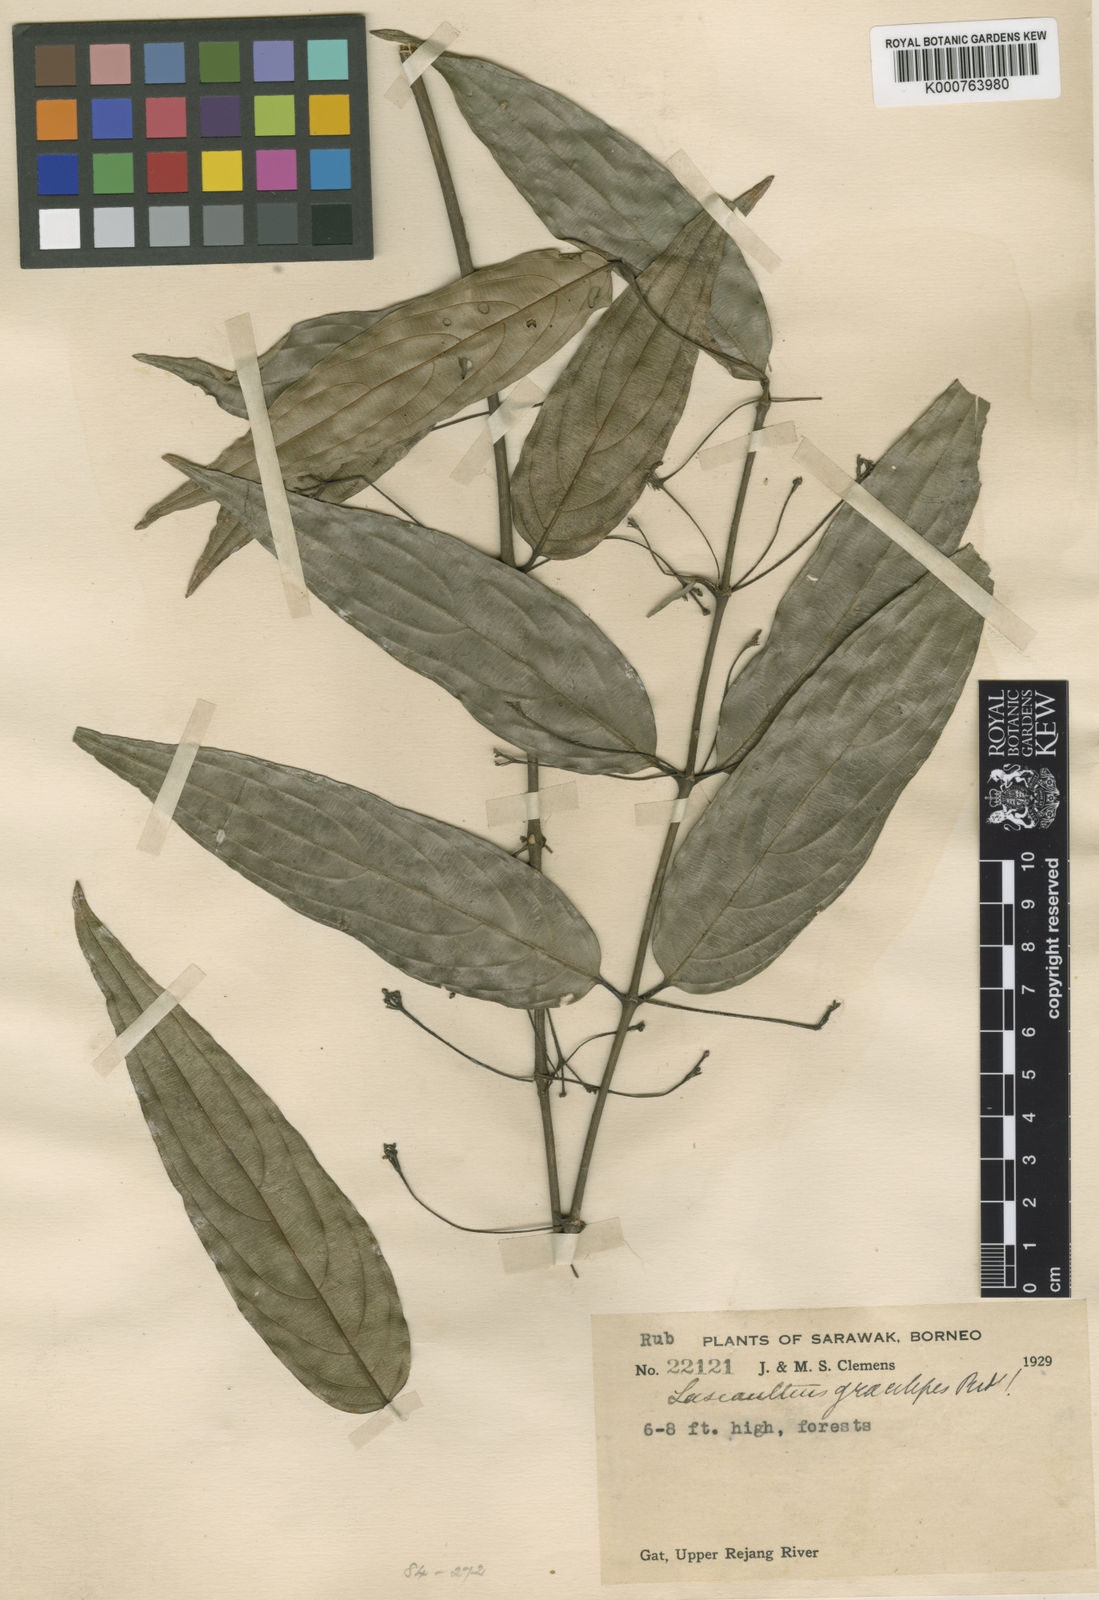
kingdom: Plantae
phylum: Tracheophyta
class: Magnoliopsida
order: Gentianales
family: Rubiaceae
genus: Lasianthus
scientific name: Lasianthus
